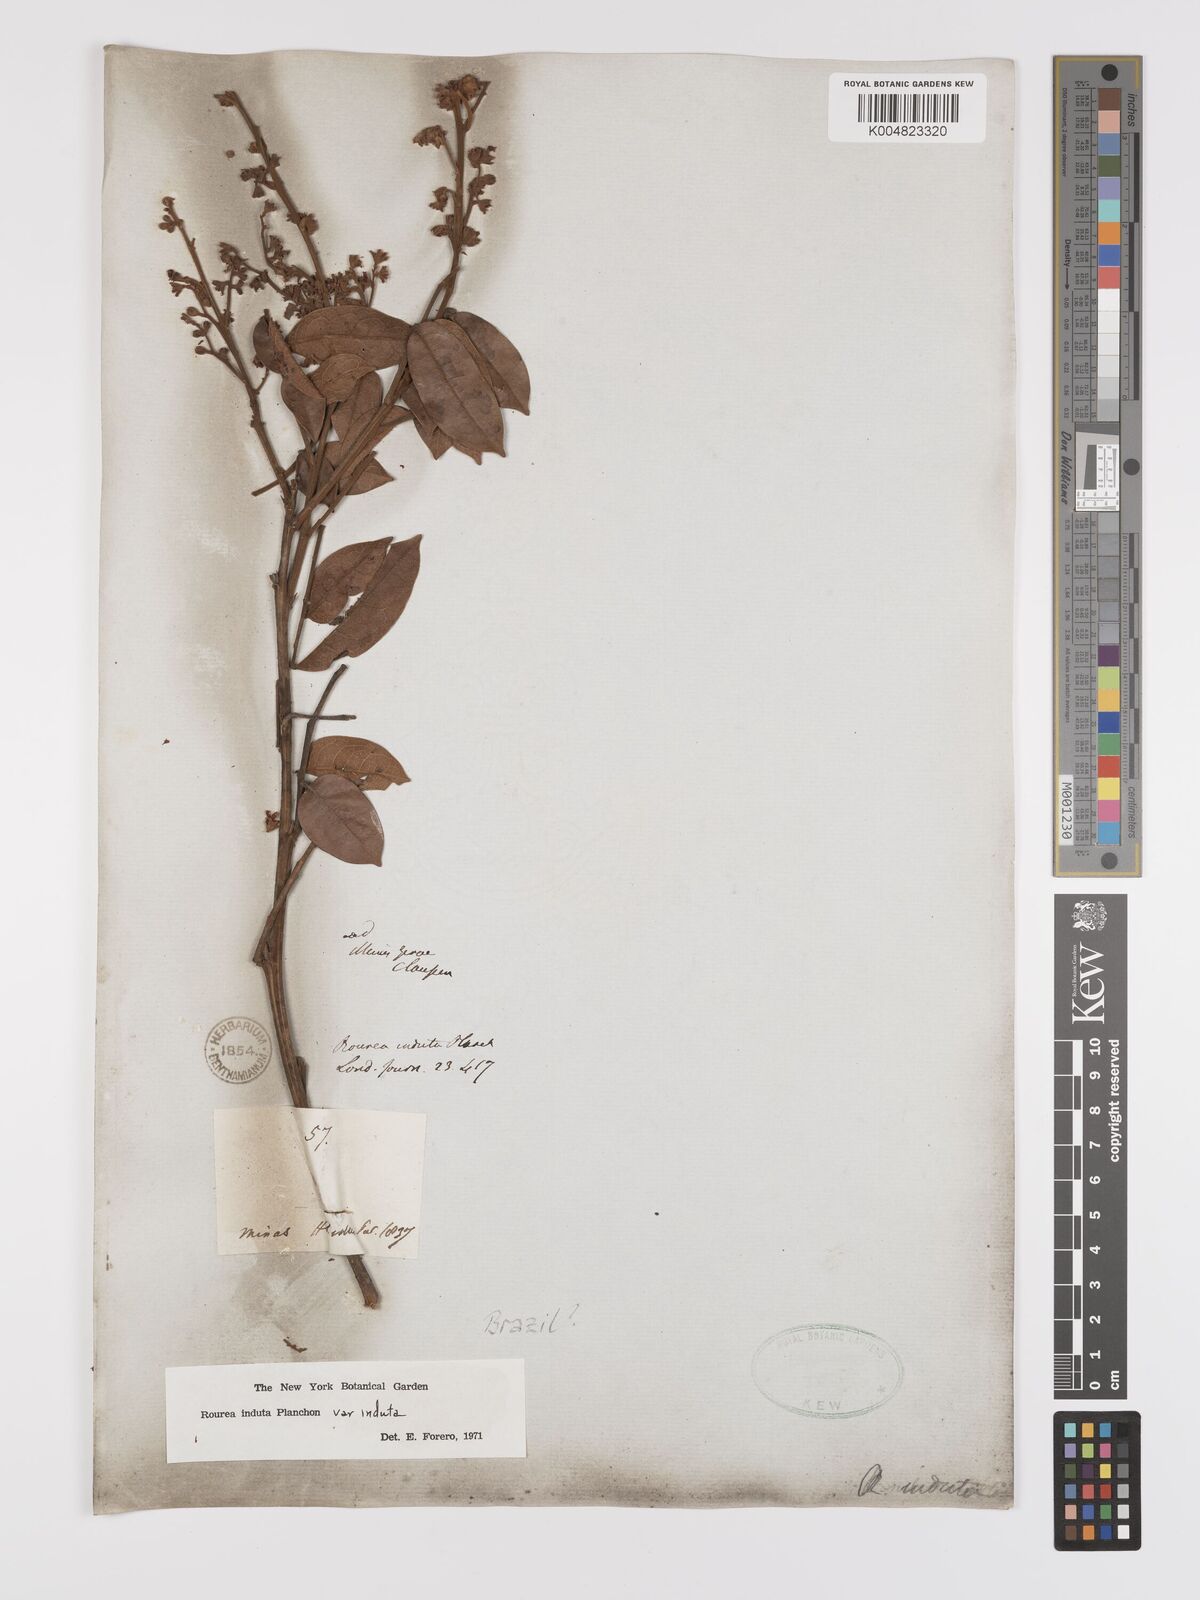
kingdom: Plantae
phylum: Tracheophyta
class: Magnoliopsida
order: Oxalidales
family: Connaraceae
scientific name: Connaraceae
